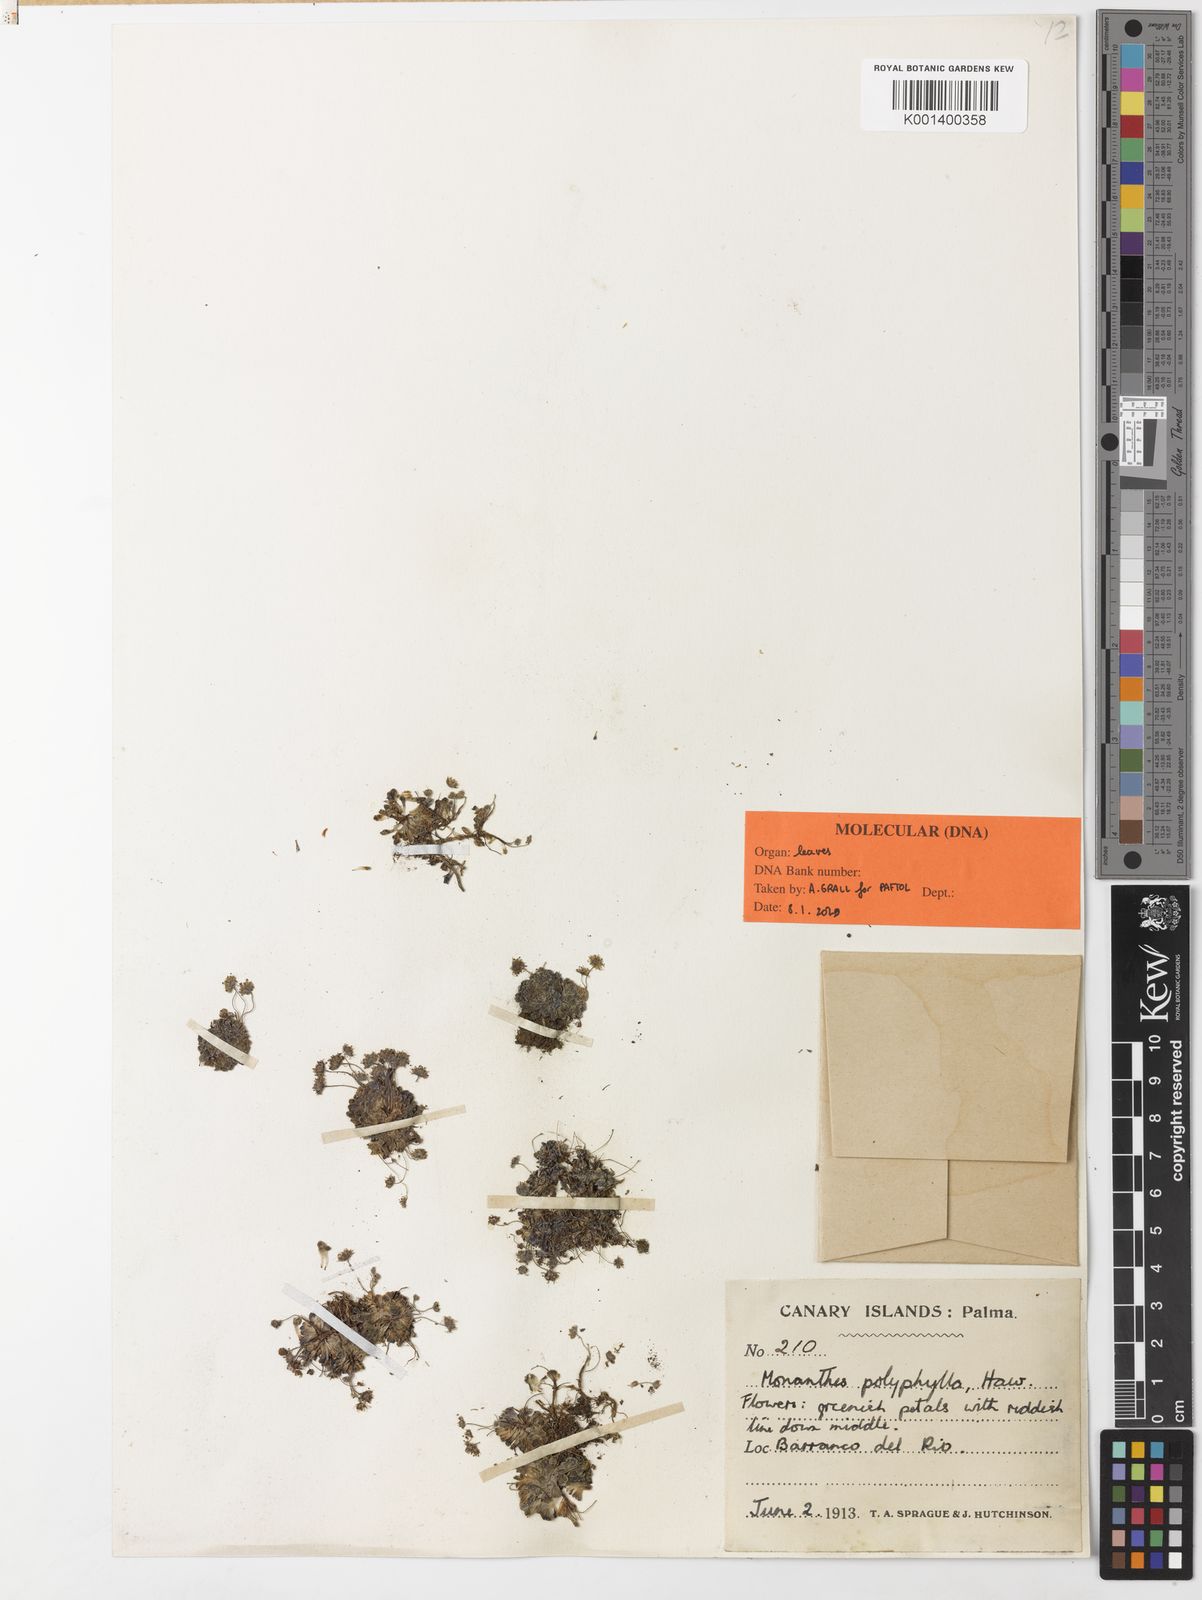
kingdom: Plantae
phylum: Tracheophyta
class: Magnoliopsida
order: Saxifragales
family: Crassulaceae
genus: Monanthes
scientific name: Monanthes polyphylla
